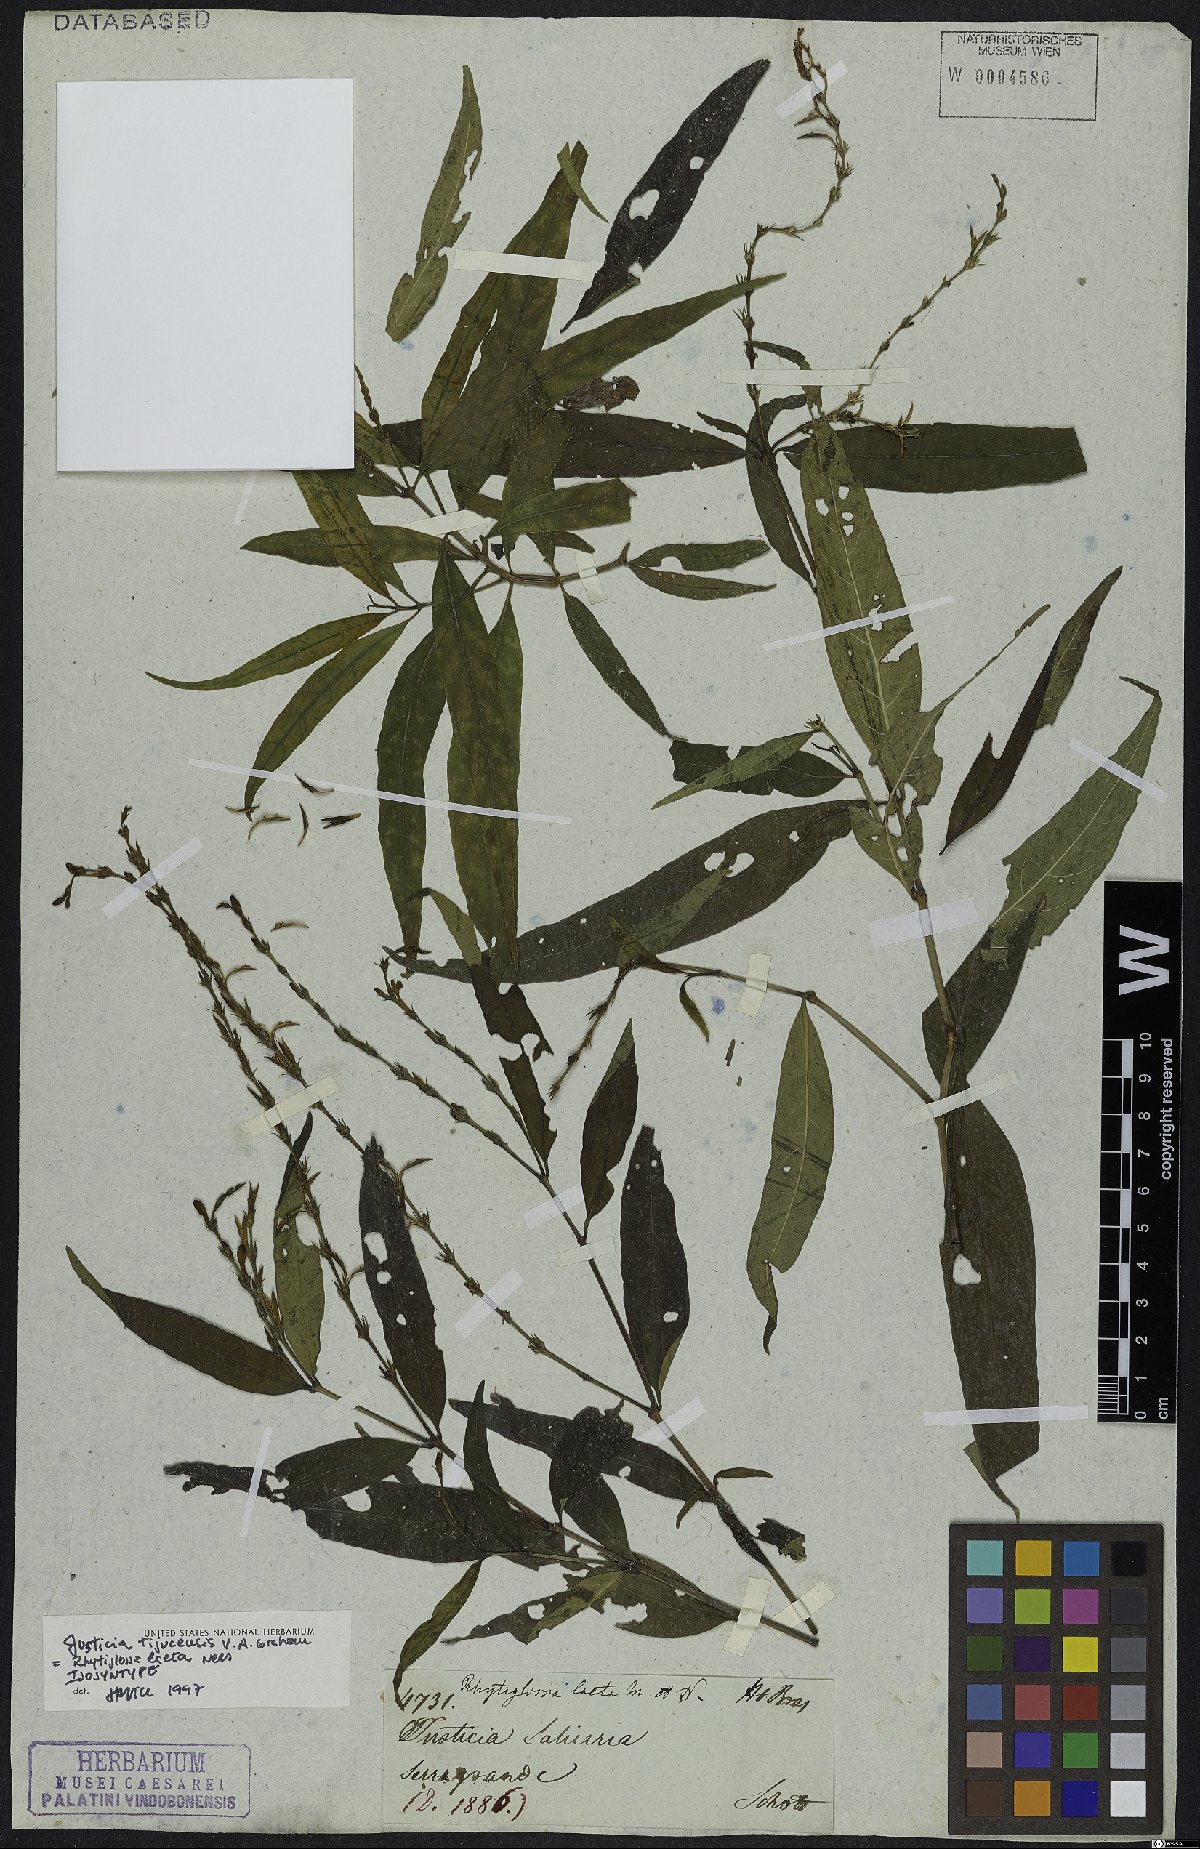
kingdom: Plantae
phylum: Tracheophyta
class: Magnoliopsida
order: Lamiales
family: Acanthaceae
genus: Dianthera
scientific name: Dianthera laeta
